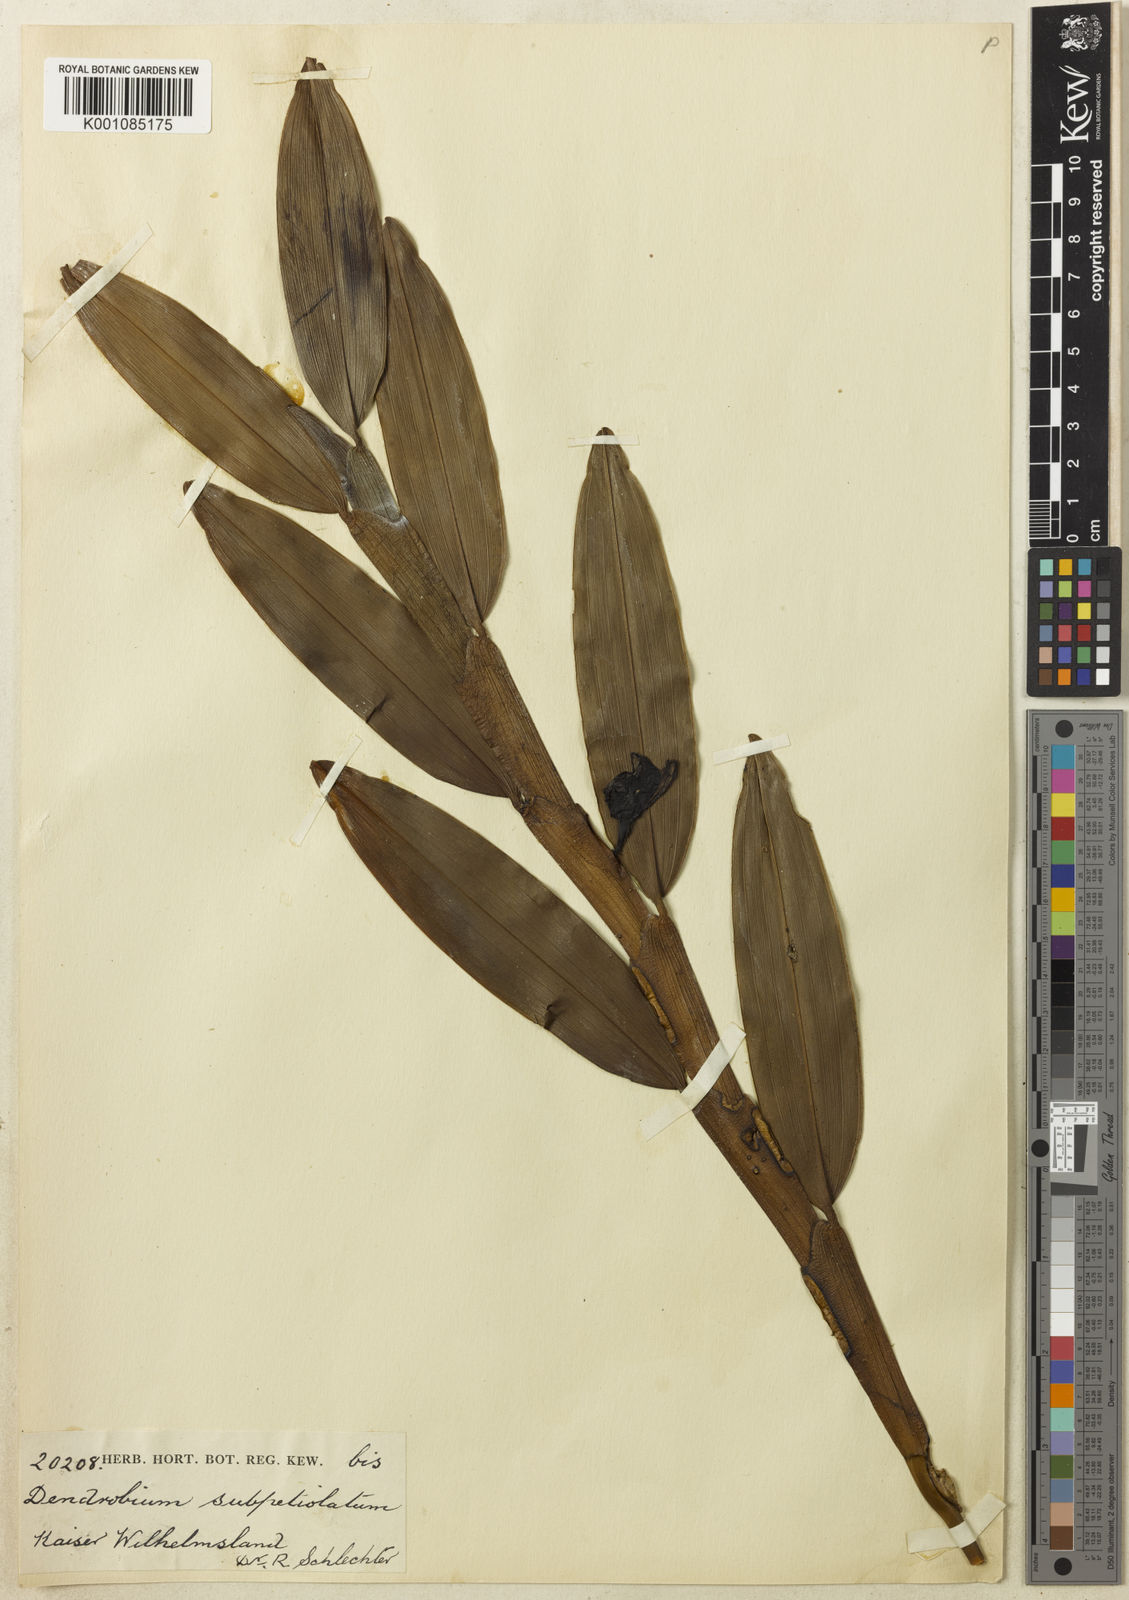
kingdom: Plantae
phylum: Tracheophyta
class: Liliopsida
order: Asparagales
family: Orchidaceae
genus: Dendrobium
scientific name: Dendrobium subpetiolatum
